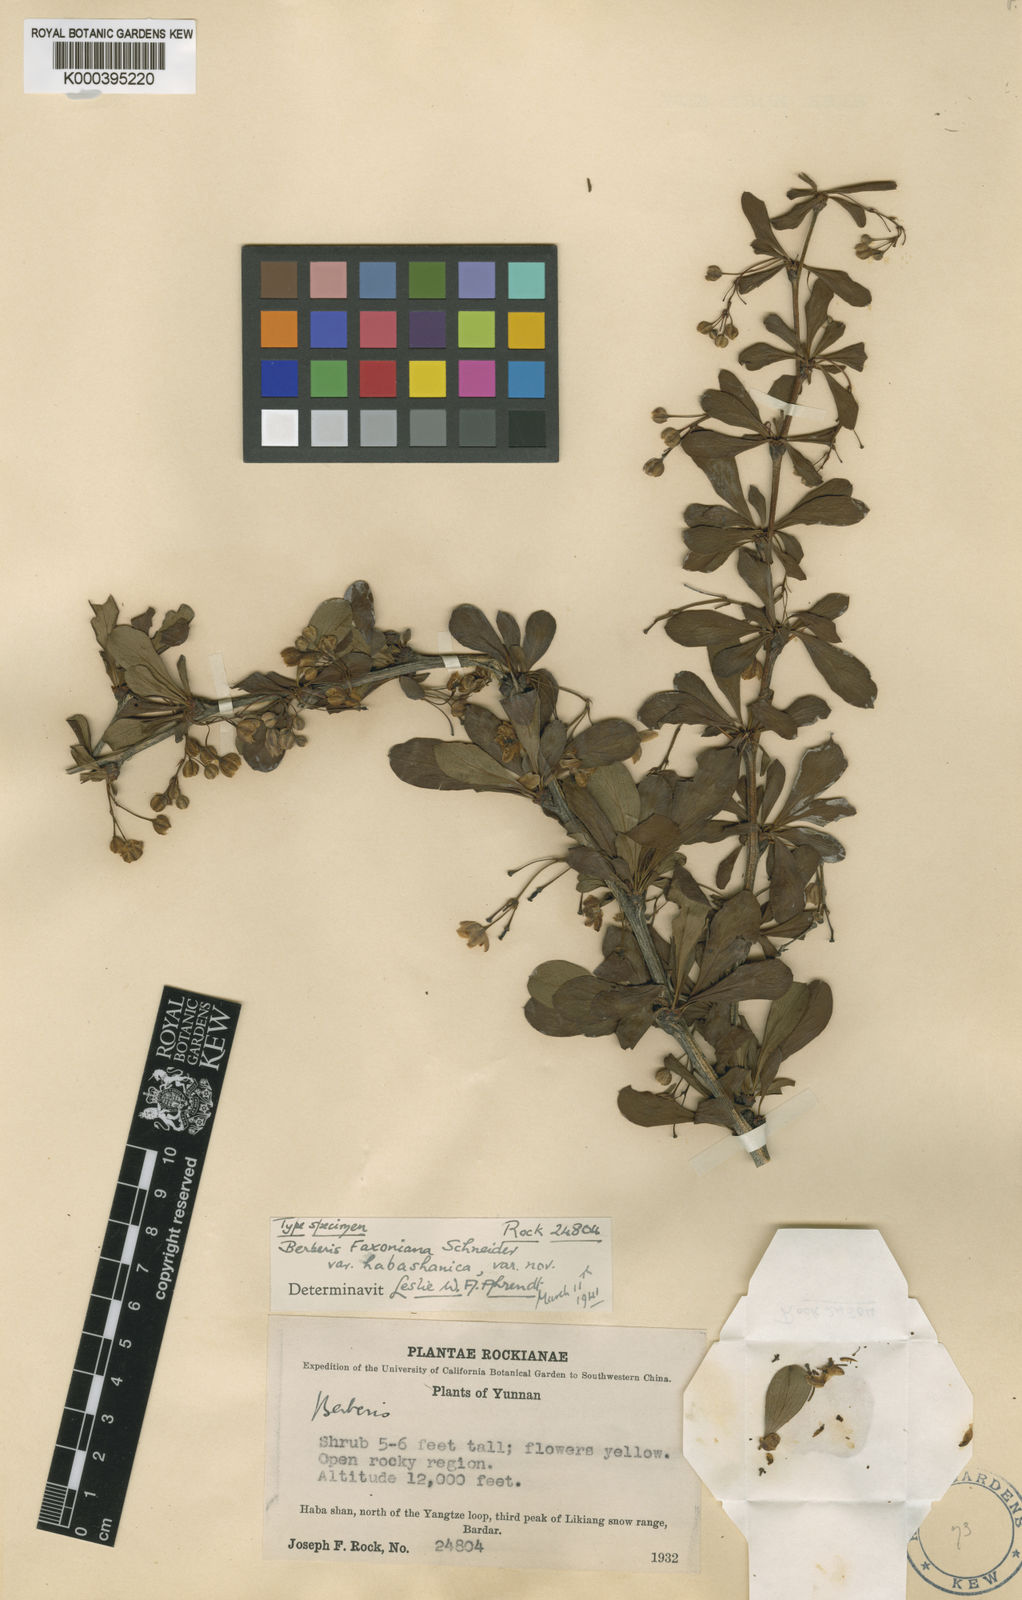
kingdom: Plantae
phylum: Tracheophyta
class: Magnoliopsida
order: Ranunculales
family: Berberidaceae
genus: Berberis
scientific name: Berberis faxoniana
